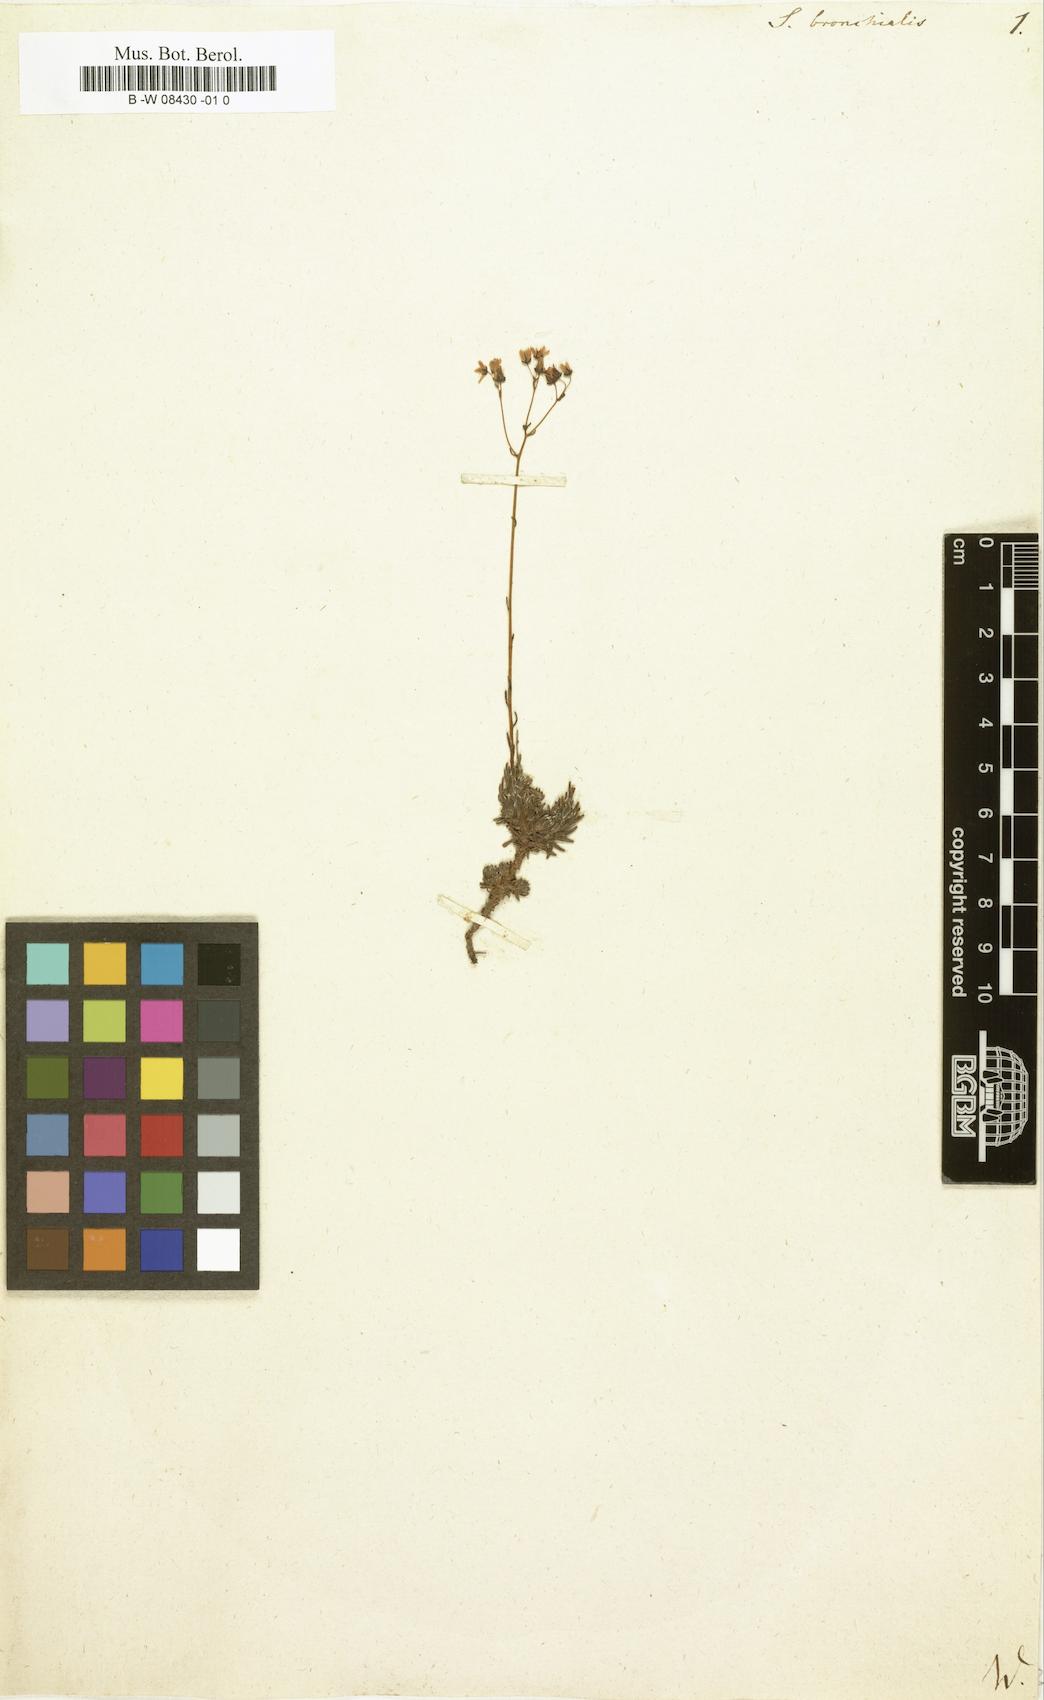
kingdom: Plantae
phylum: Tracheophyta
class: Magnoliopsida
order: Saxifragales
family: Saxifragaceae
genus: Saxifraga
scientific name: Saxifraga bronchialis
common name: Matted saxifrage
